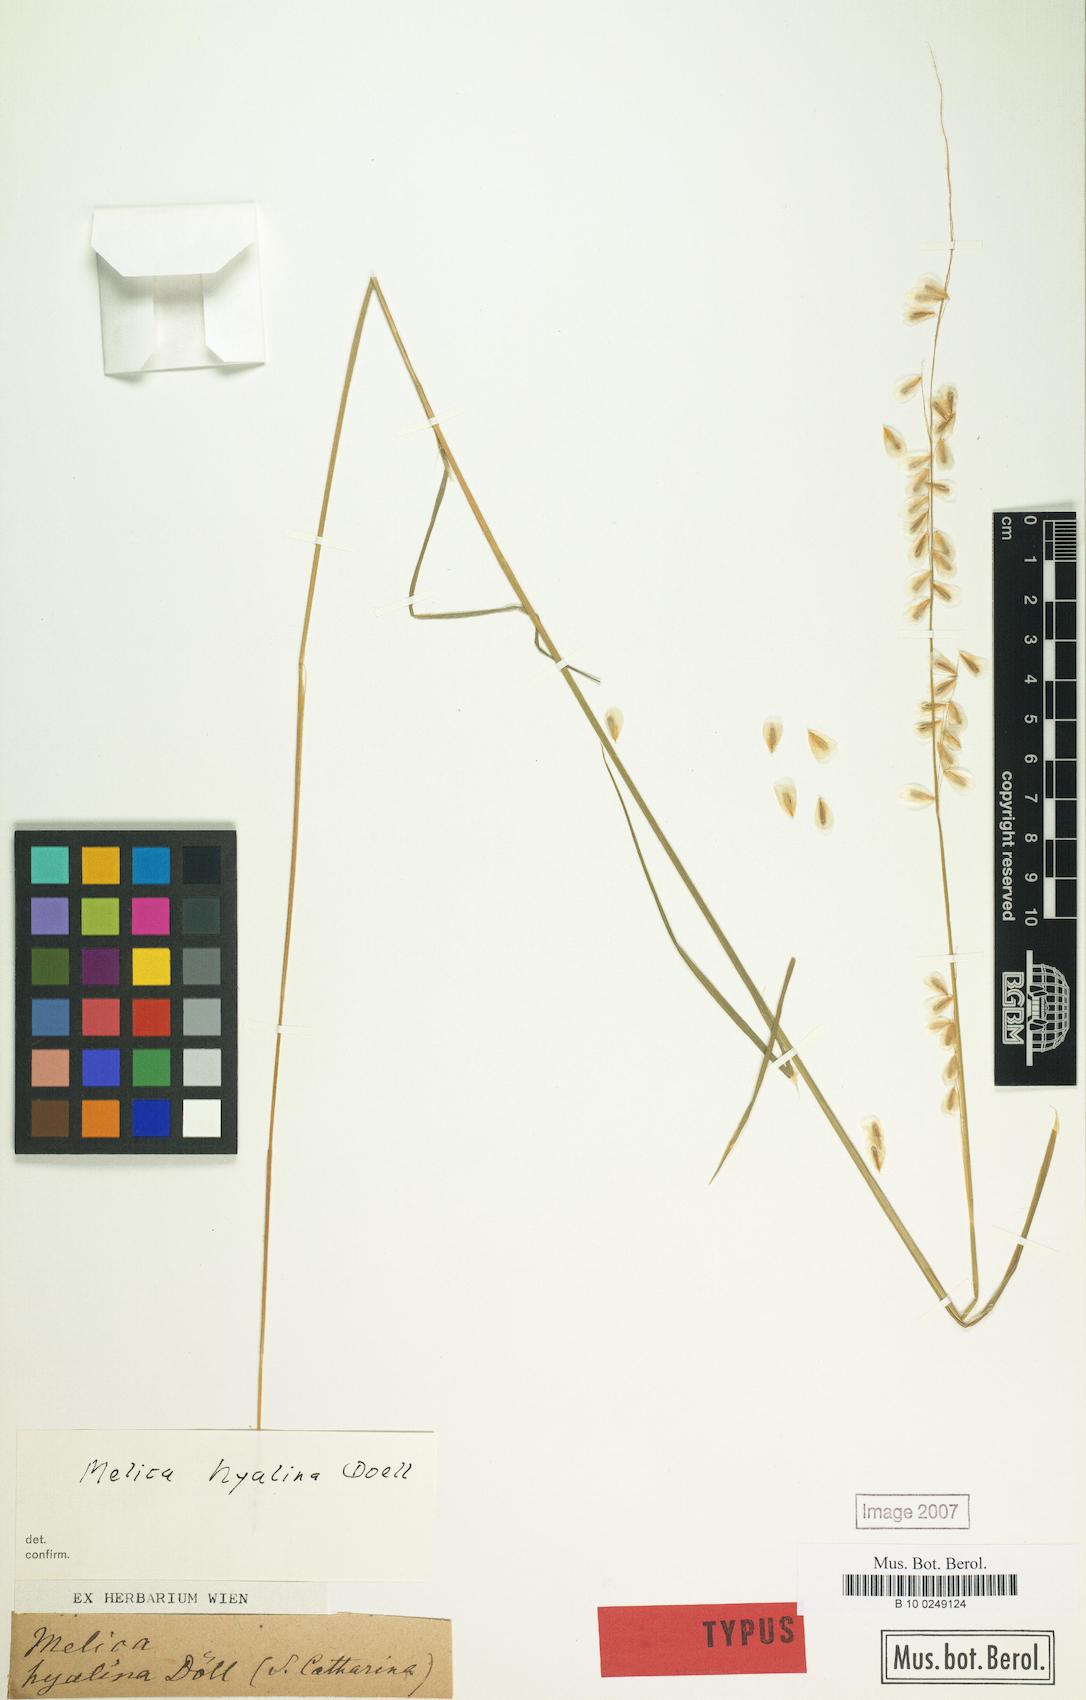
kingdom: Plantae
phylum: Tracheophyta
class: Liliopsida
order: Poales
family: Poaceae
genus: Melica
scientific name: Melica hyalina
